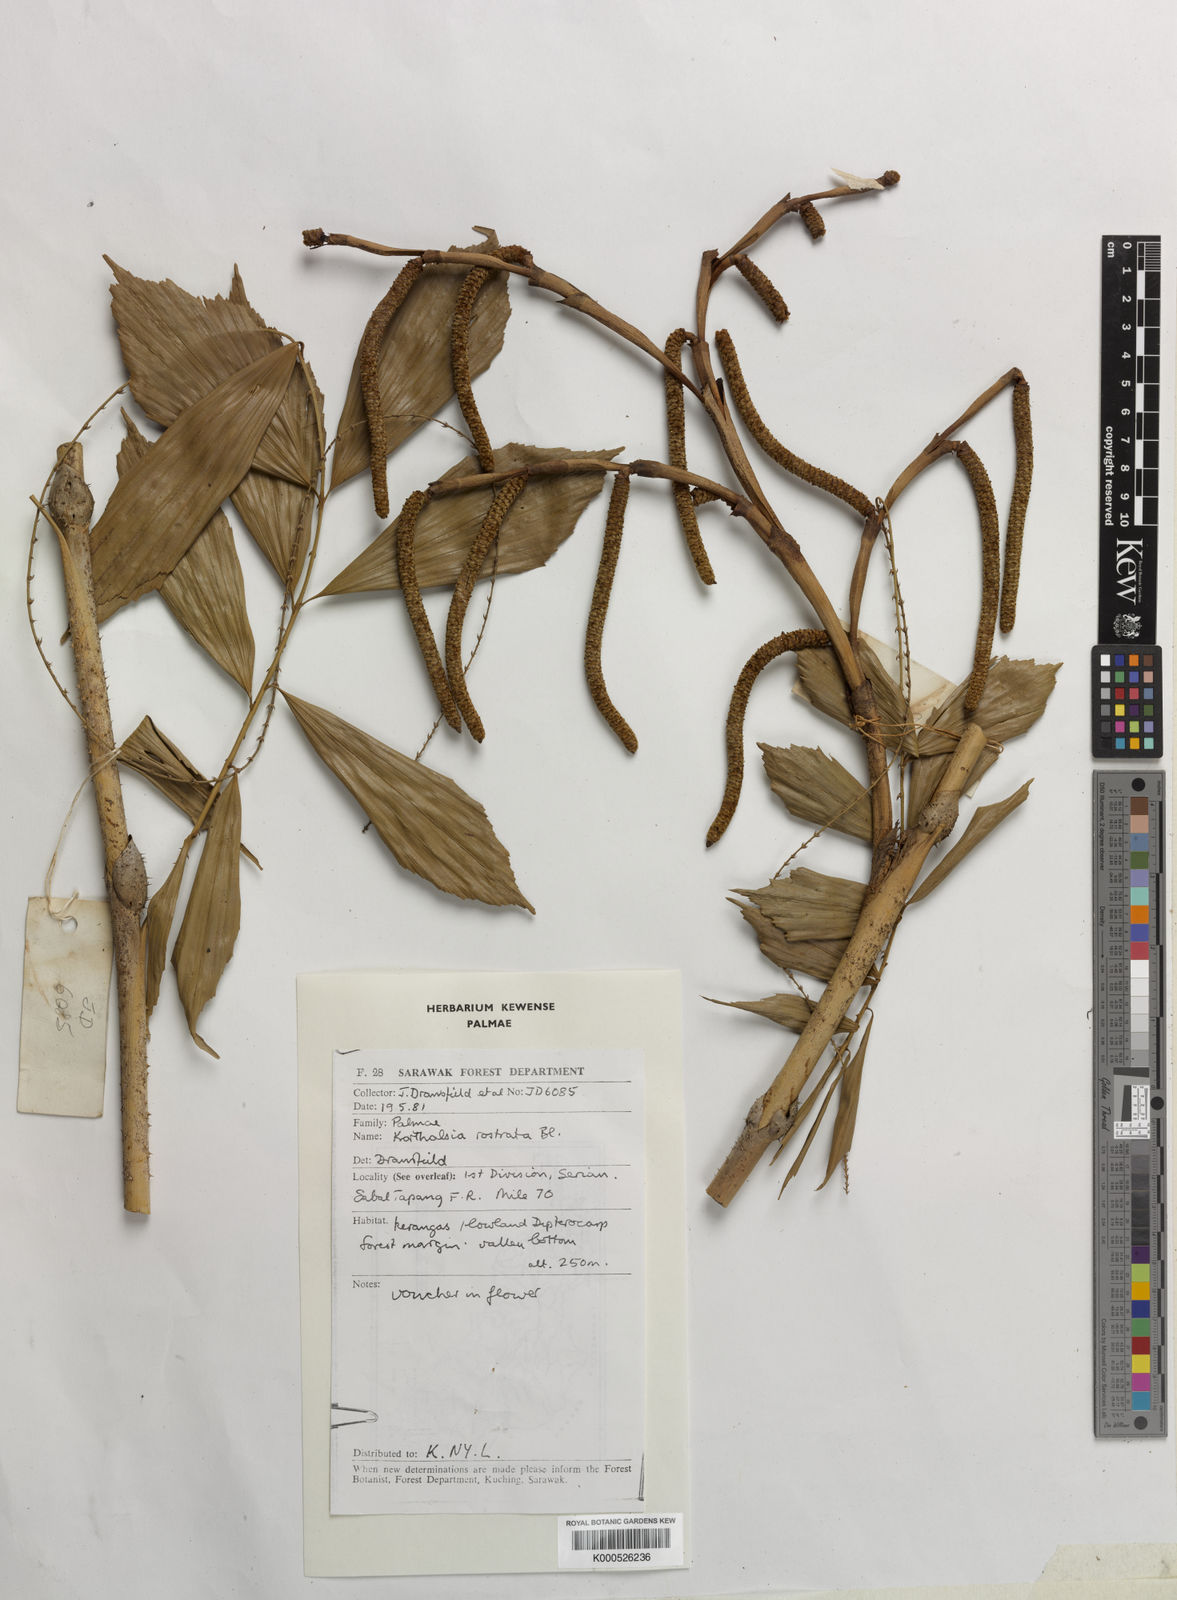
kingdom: Plantae
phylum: Tracheophyta
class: Liliopsida
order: Arecales
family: Arecaceae
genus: Korthalsia
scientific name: Korthalsia rostrata
